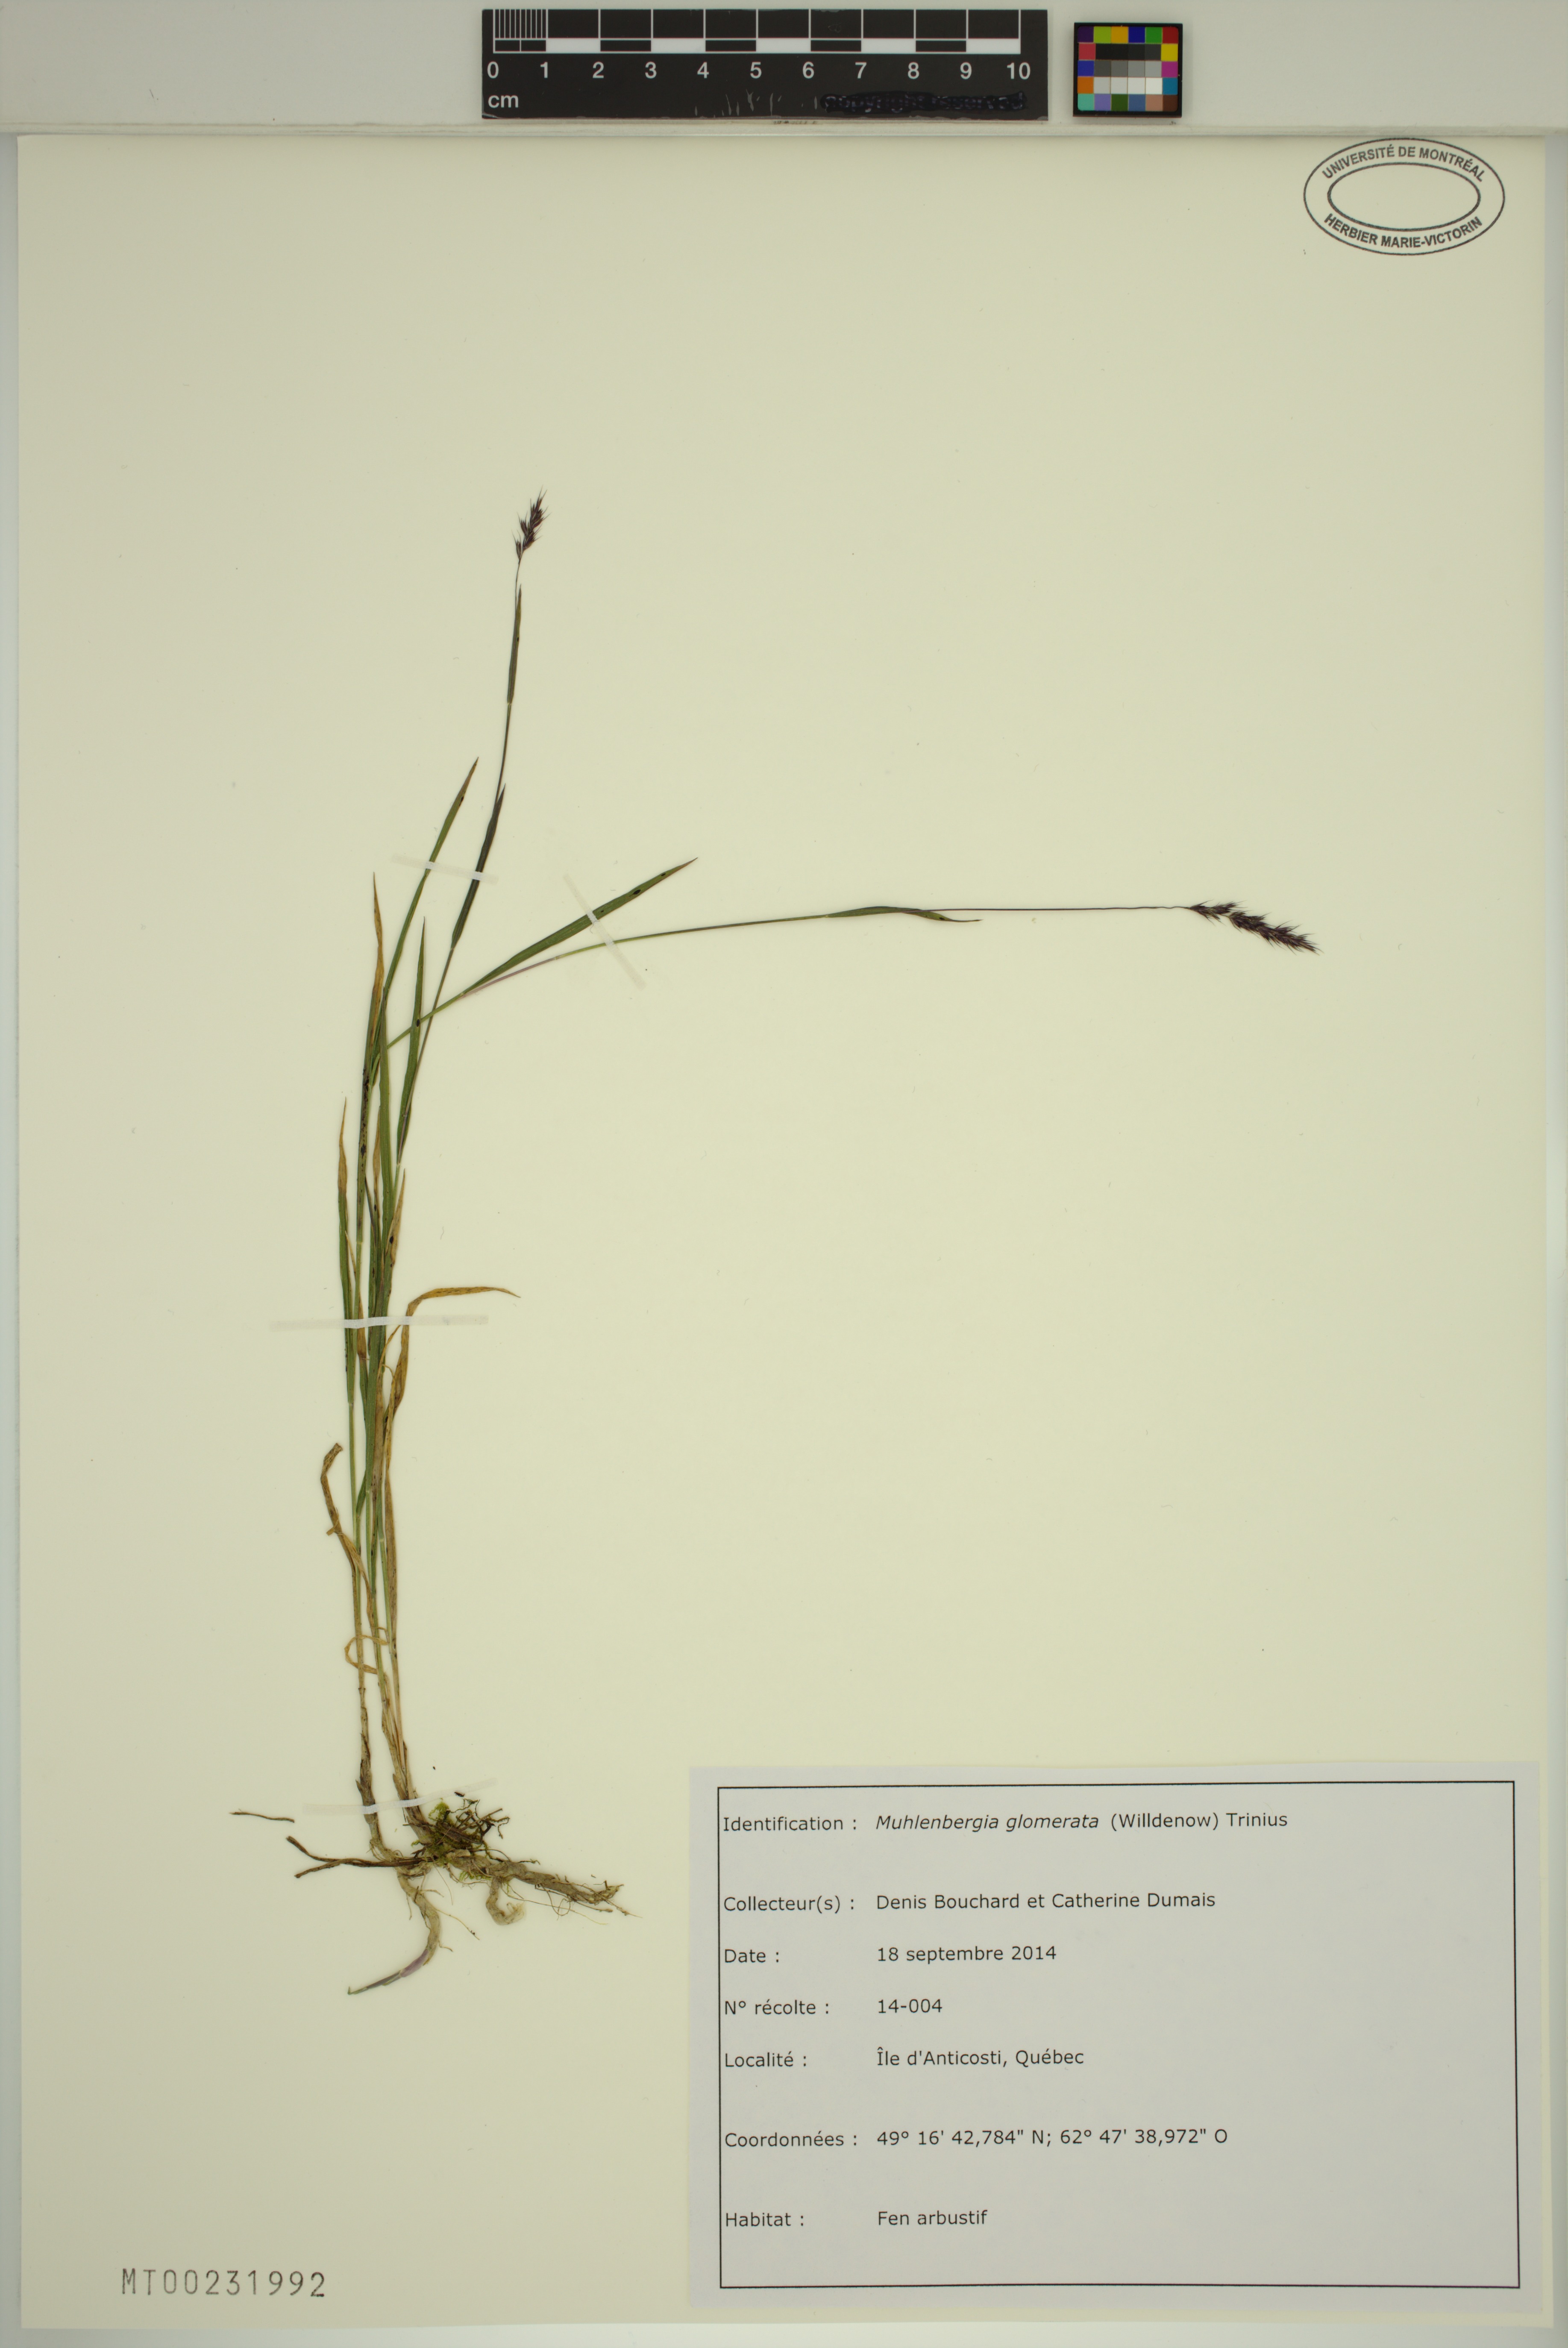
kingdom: Plantae
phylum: Tracheophyta
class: Liliopsida
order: Poales
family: Poaceae
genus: Muhlenbergia
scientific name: Muhlenbergia glomerata
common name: Bog muhly
